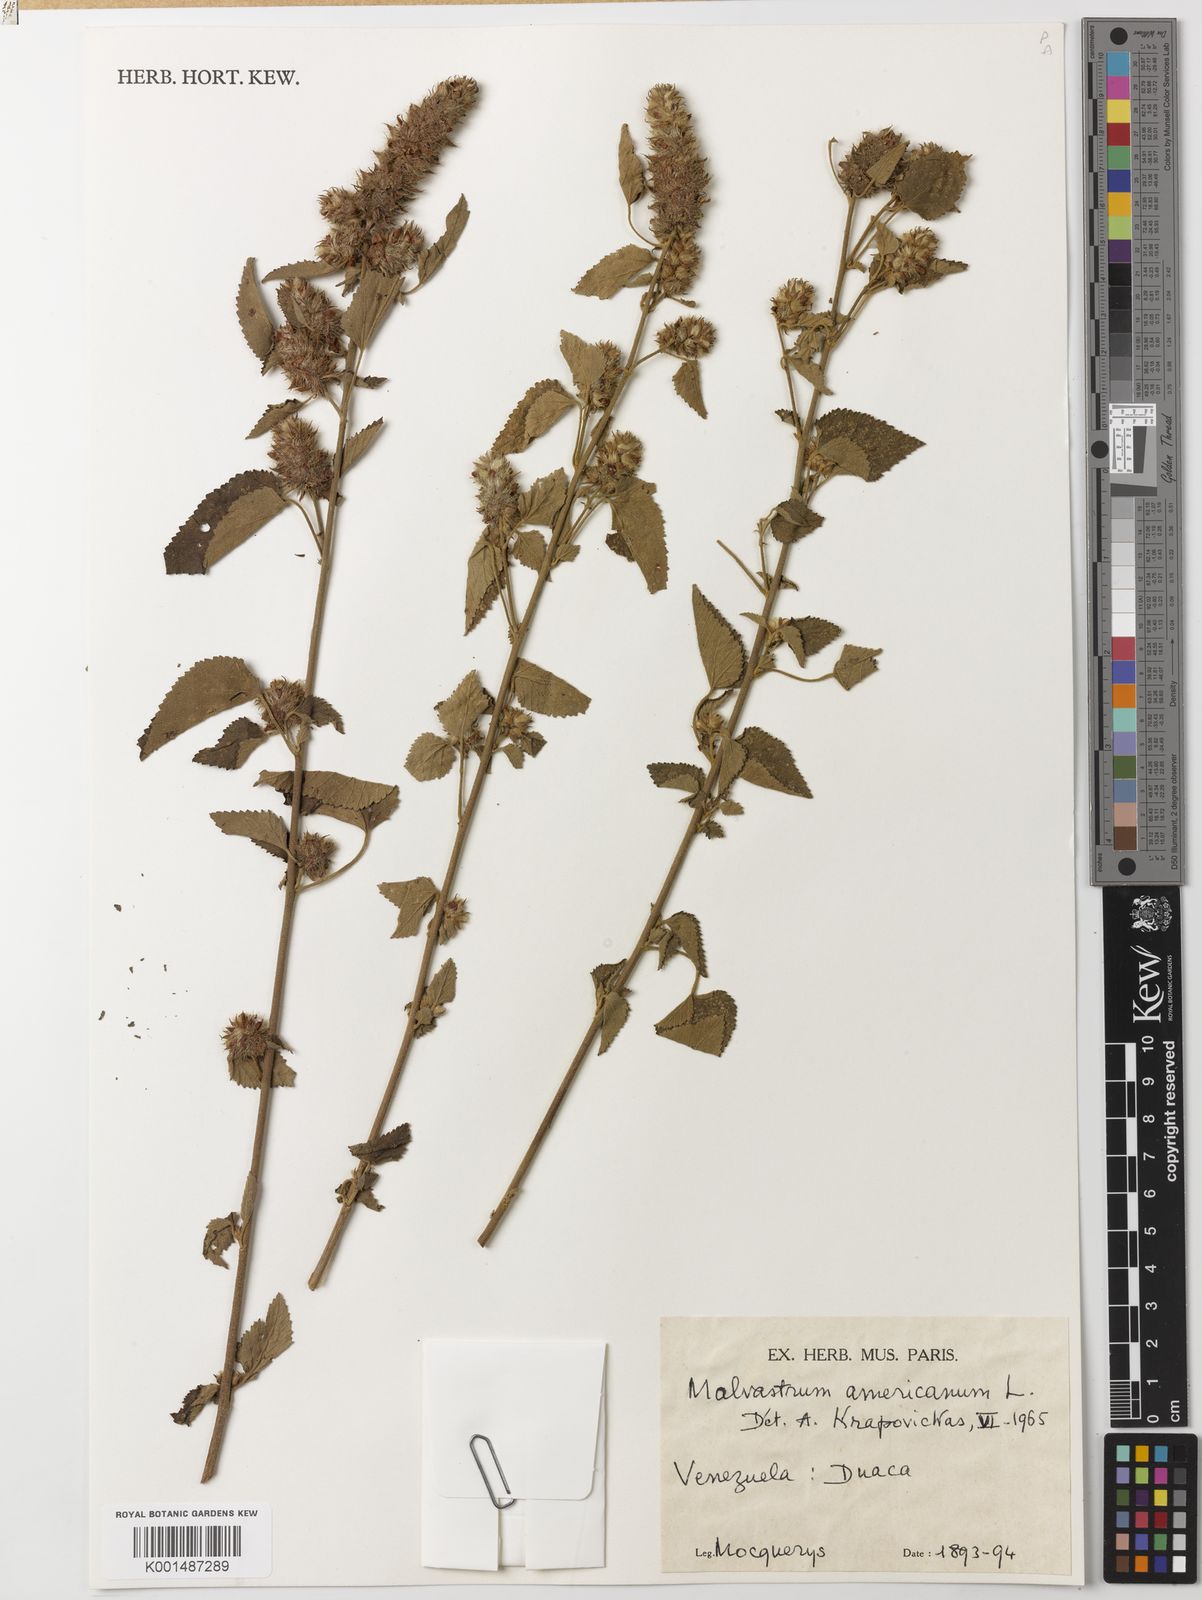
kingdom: Plantae
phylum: Tracheophyta
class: Magnoliopsida
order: Malvales
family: Malvaceae
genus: Malvastrum
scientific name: Malvastrum americanum
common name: Spiked malvastrum
